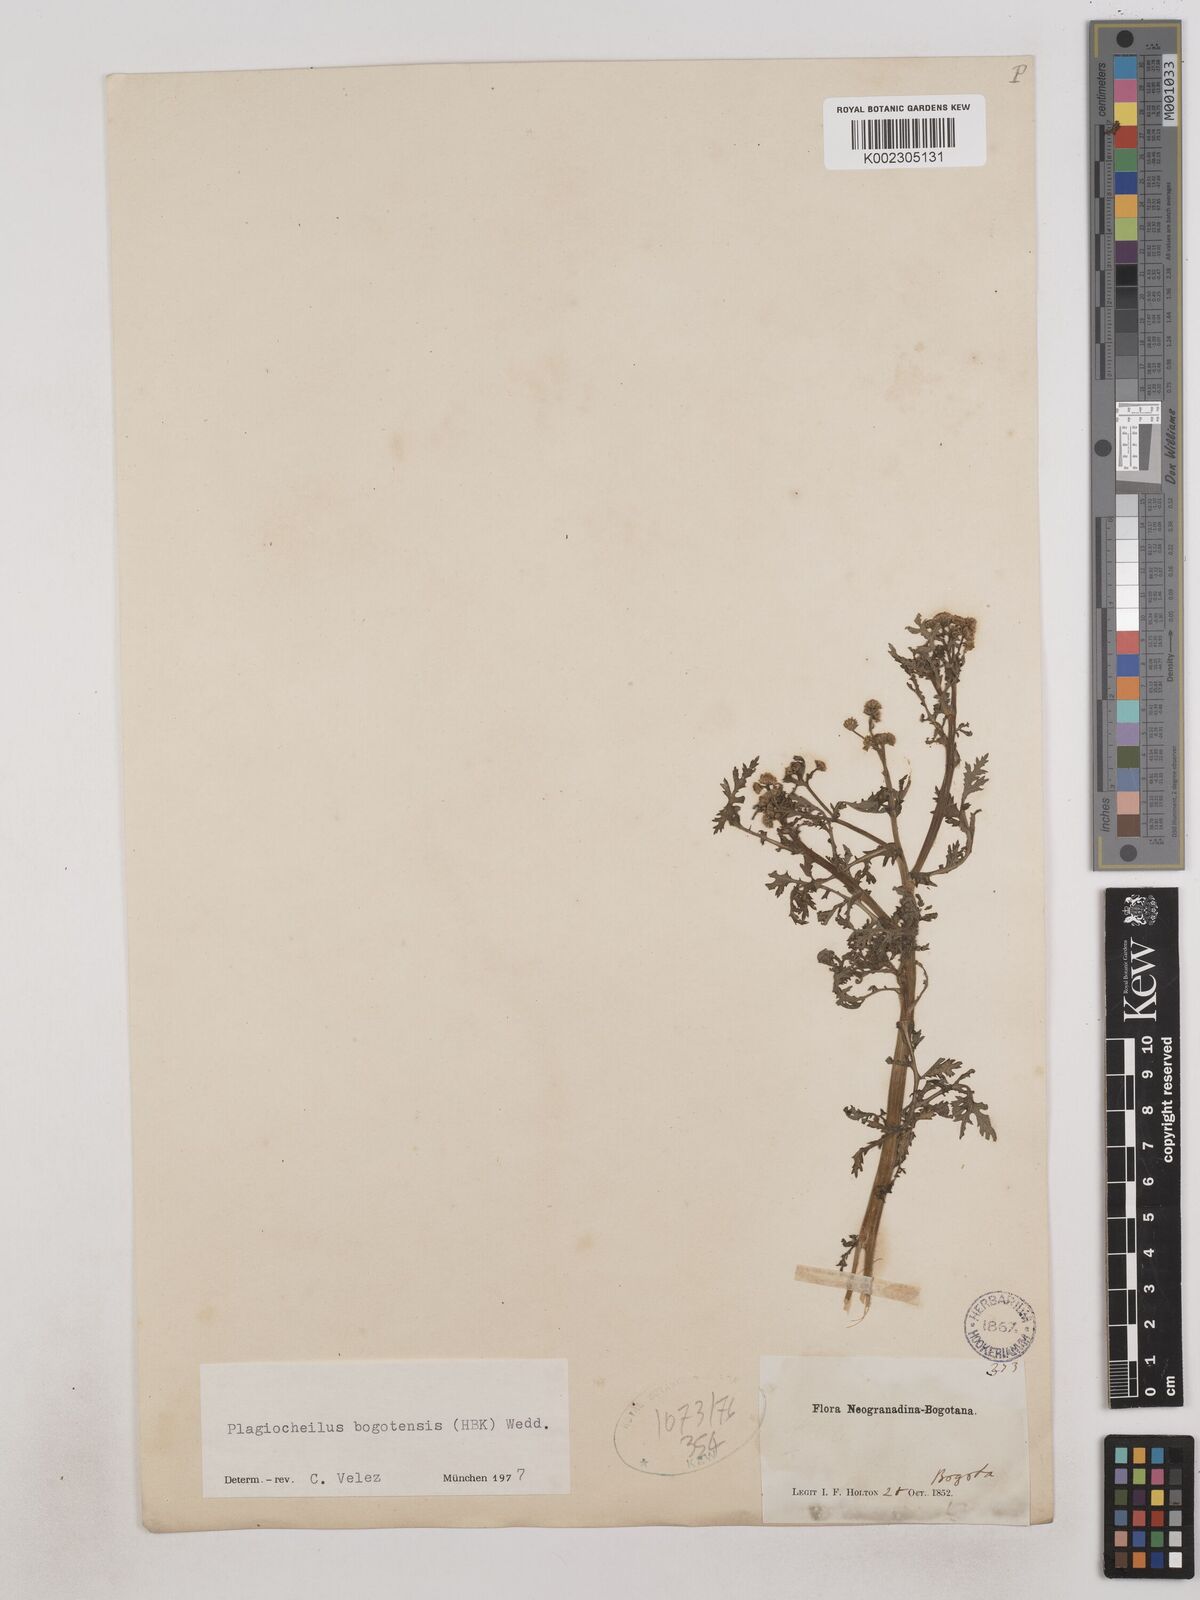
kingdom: Plantae
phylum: Tracheophyta
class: Magnoliopsida
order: Asterales
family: Asteraceae
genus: Plagiocheilus
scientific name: Plagiocheilus bogotensis
